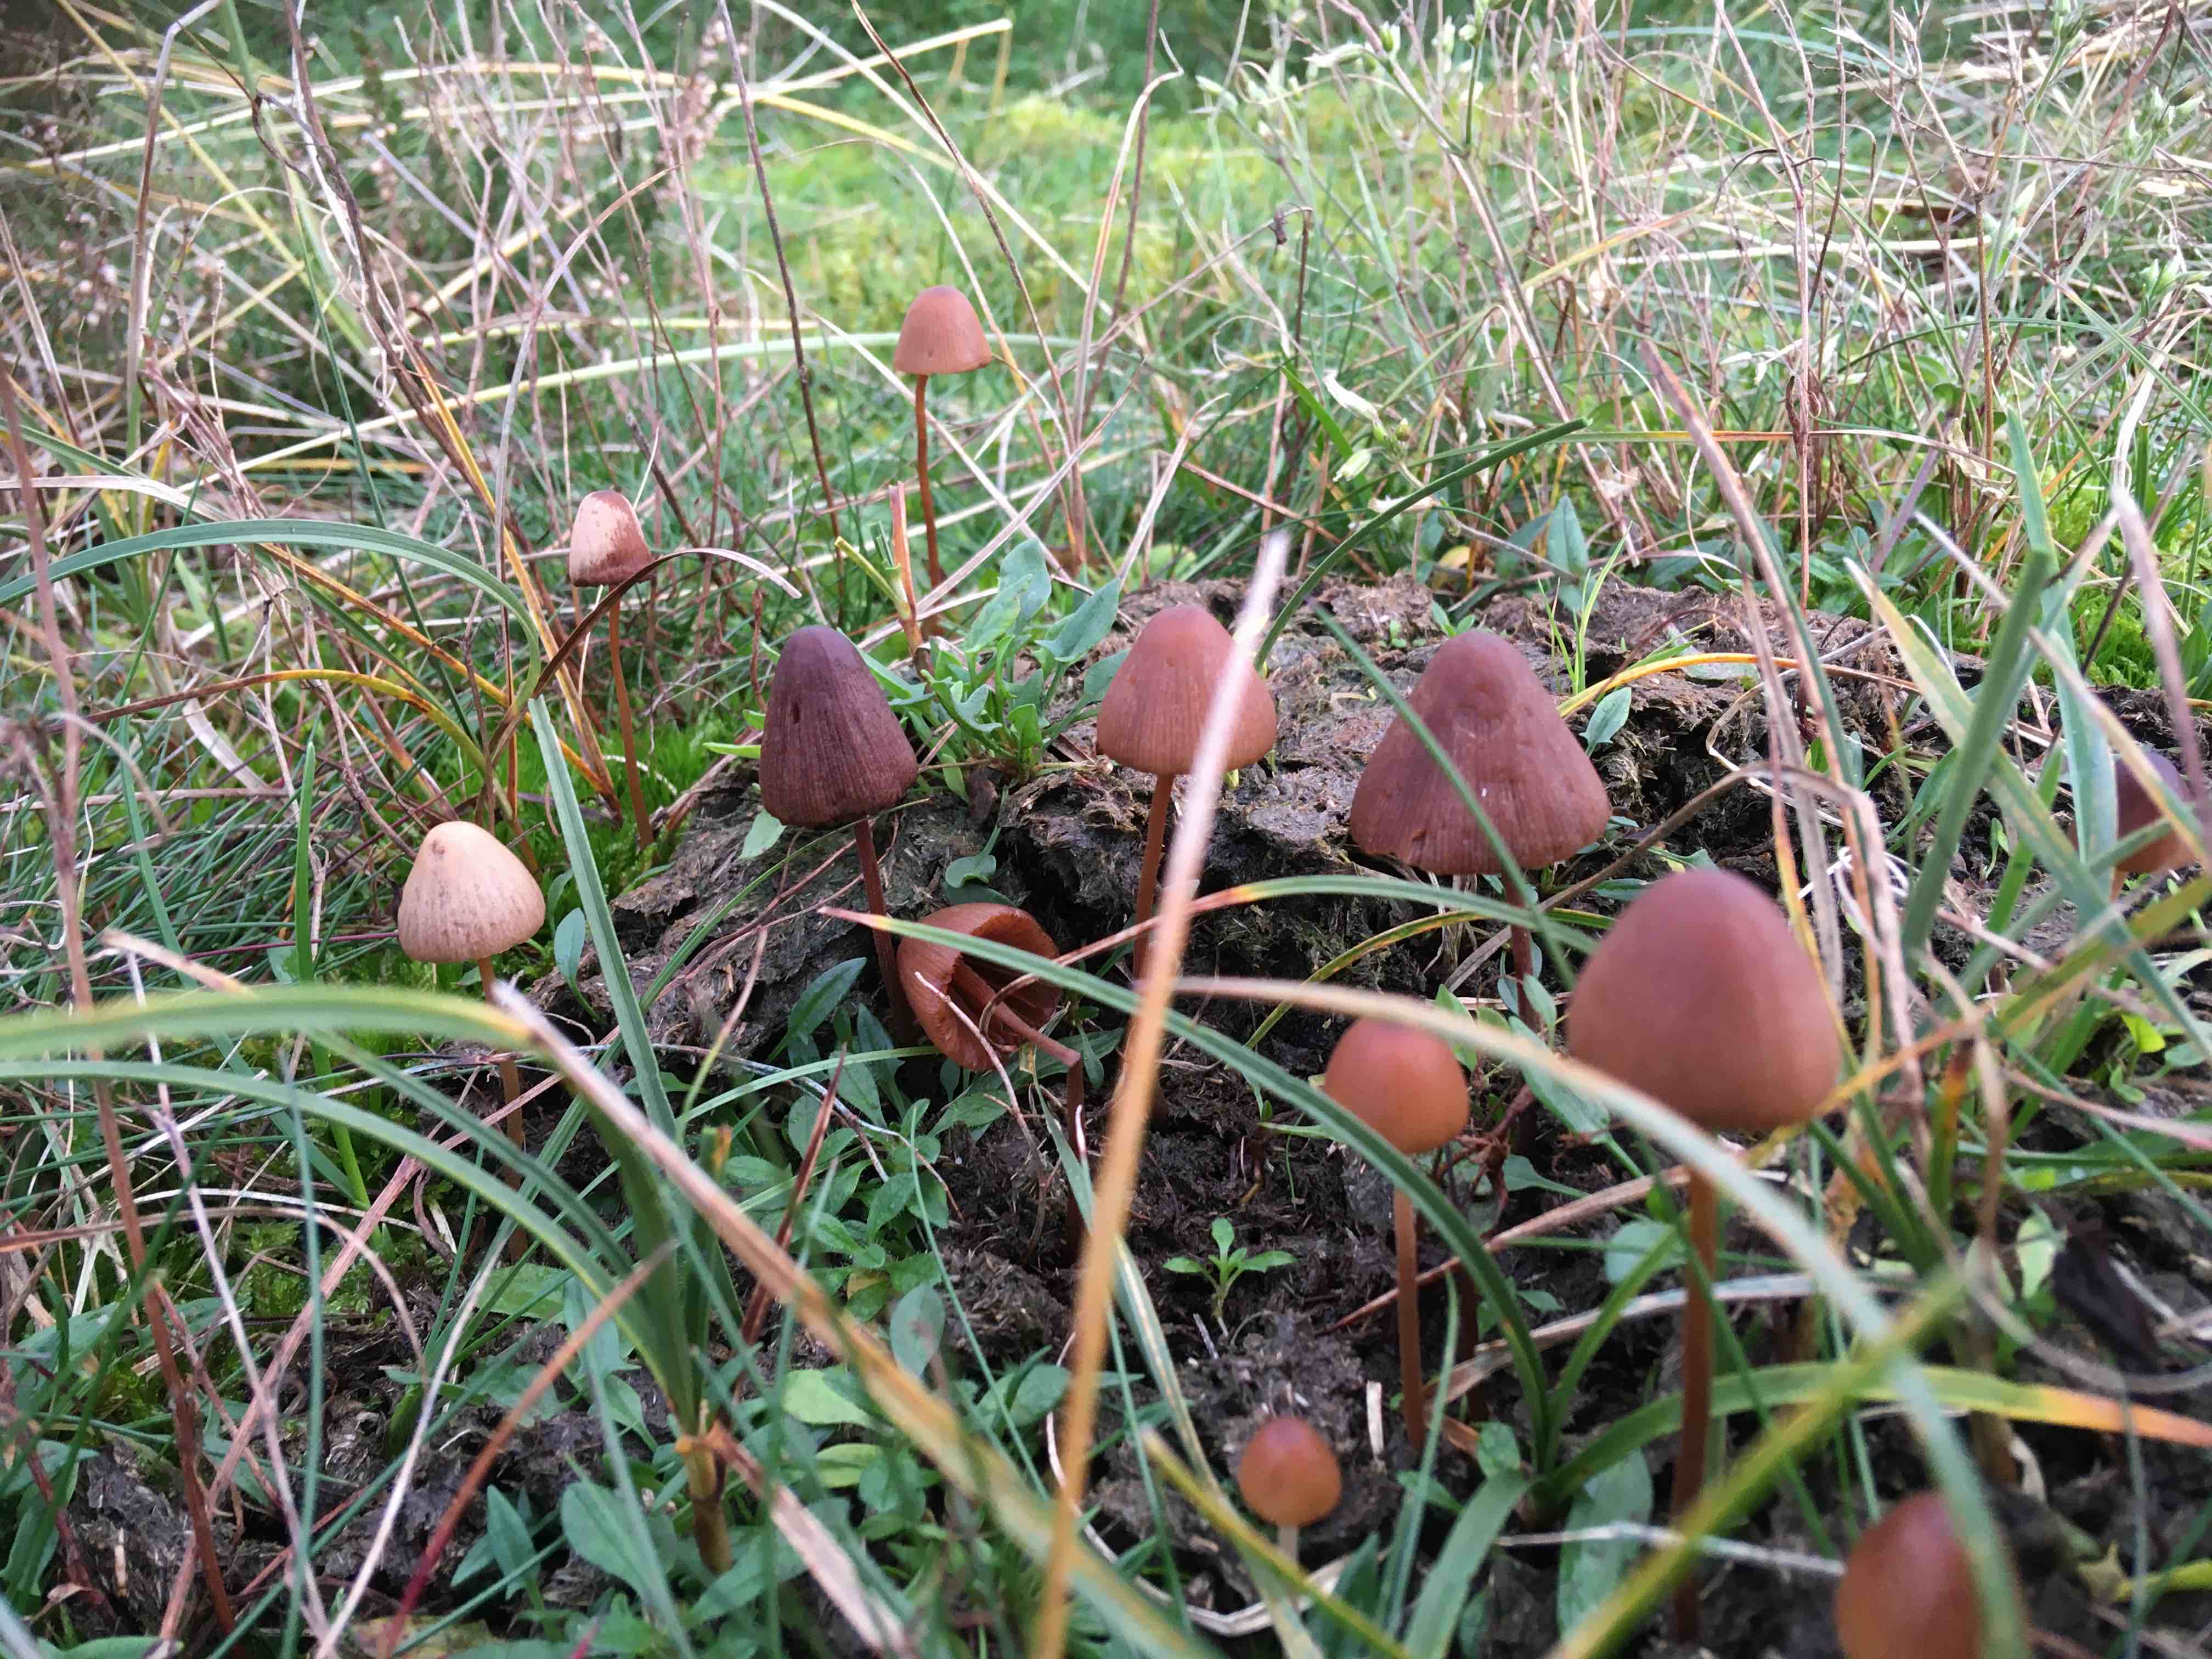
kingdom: Fungi
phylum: Basidiomycota
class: Agaricomycetes
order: Agaricales
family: Bolbitiaceae
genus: Conocybe
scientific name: Conocybe
